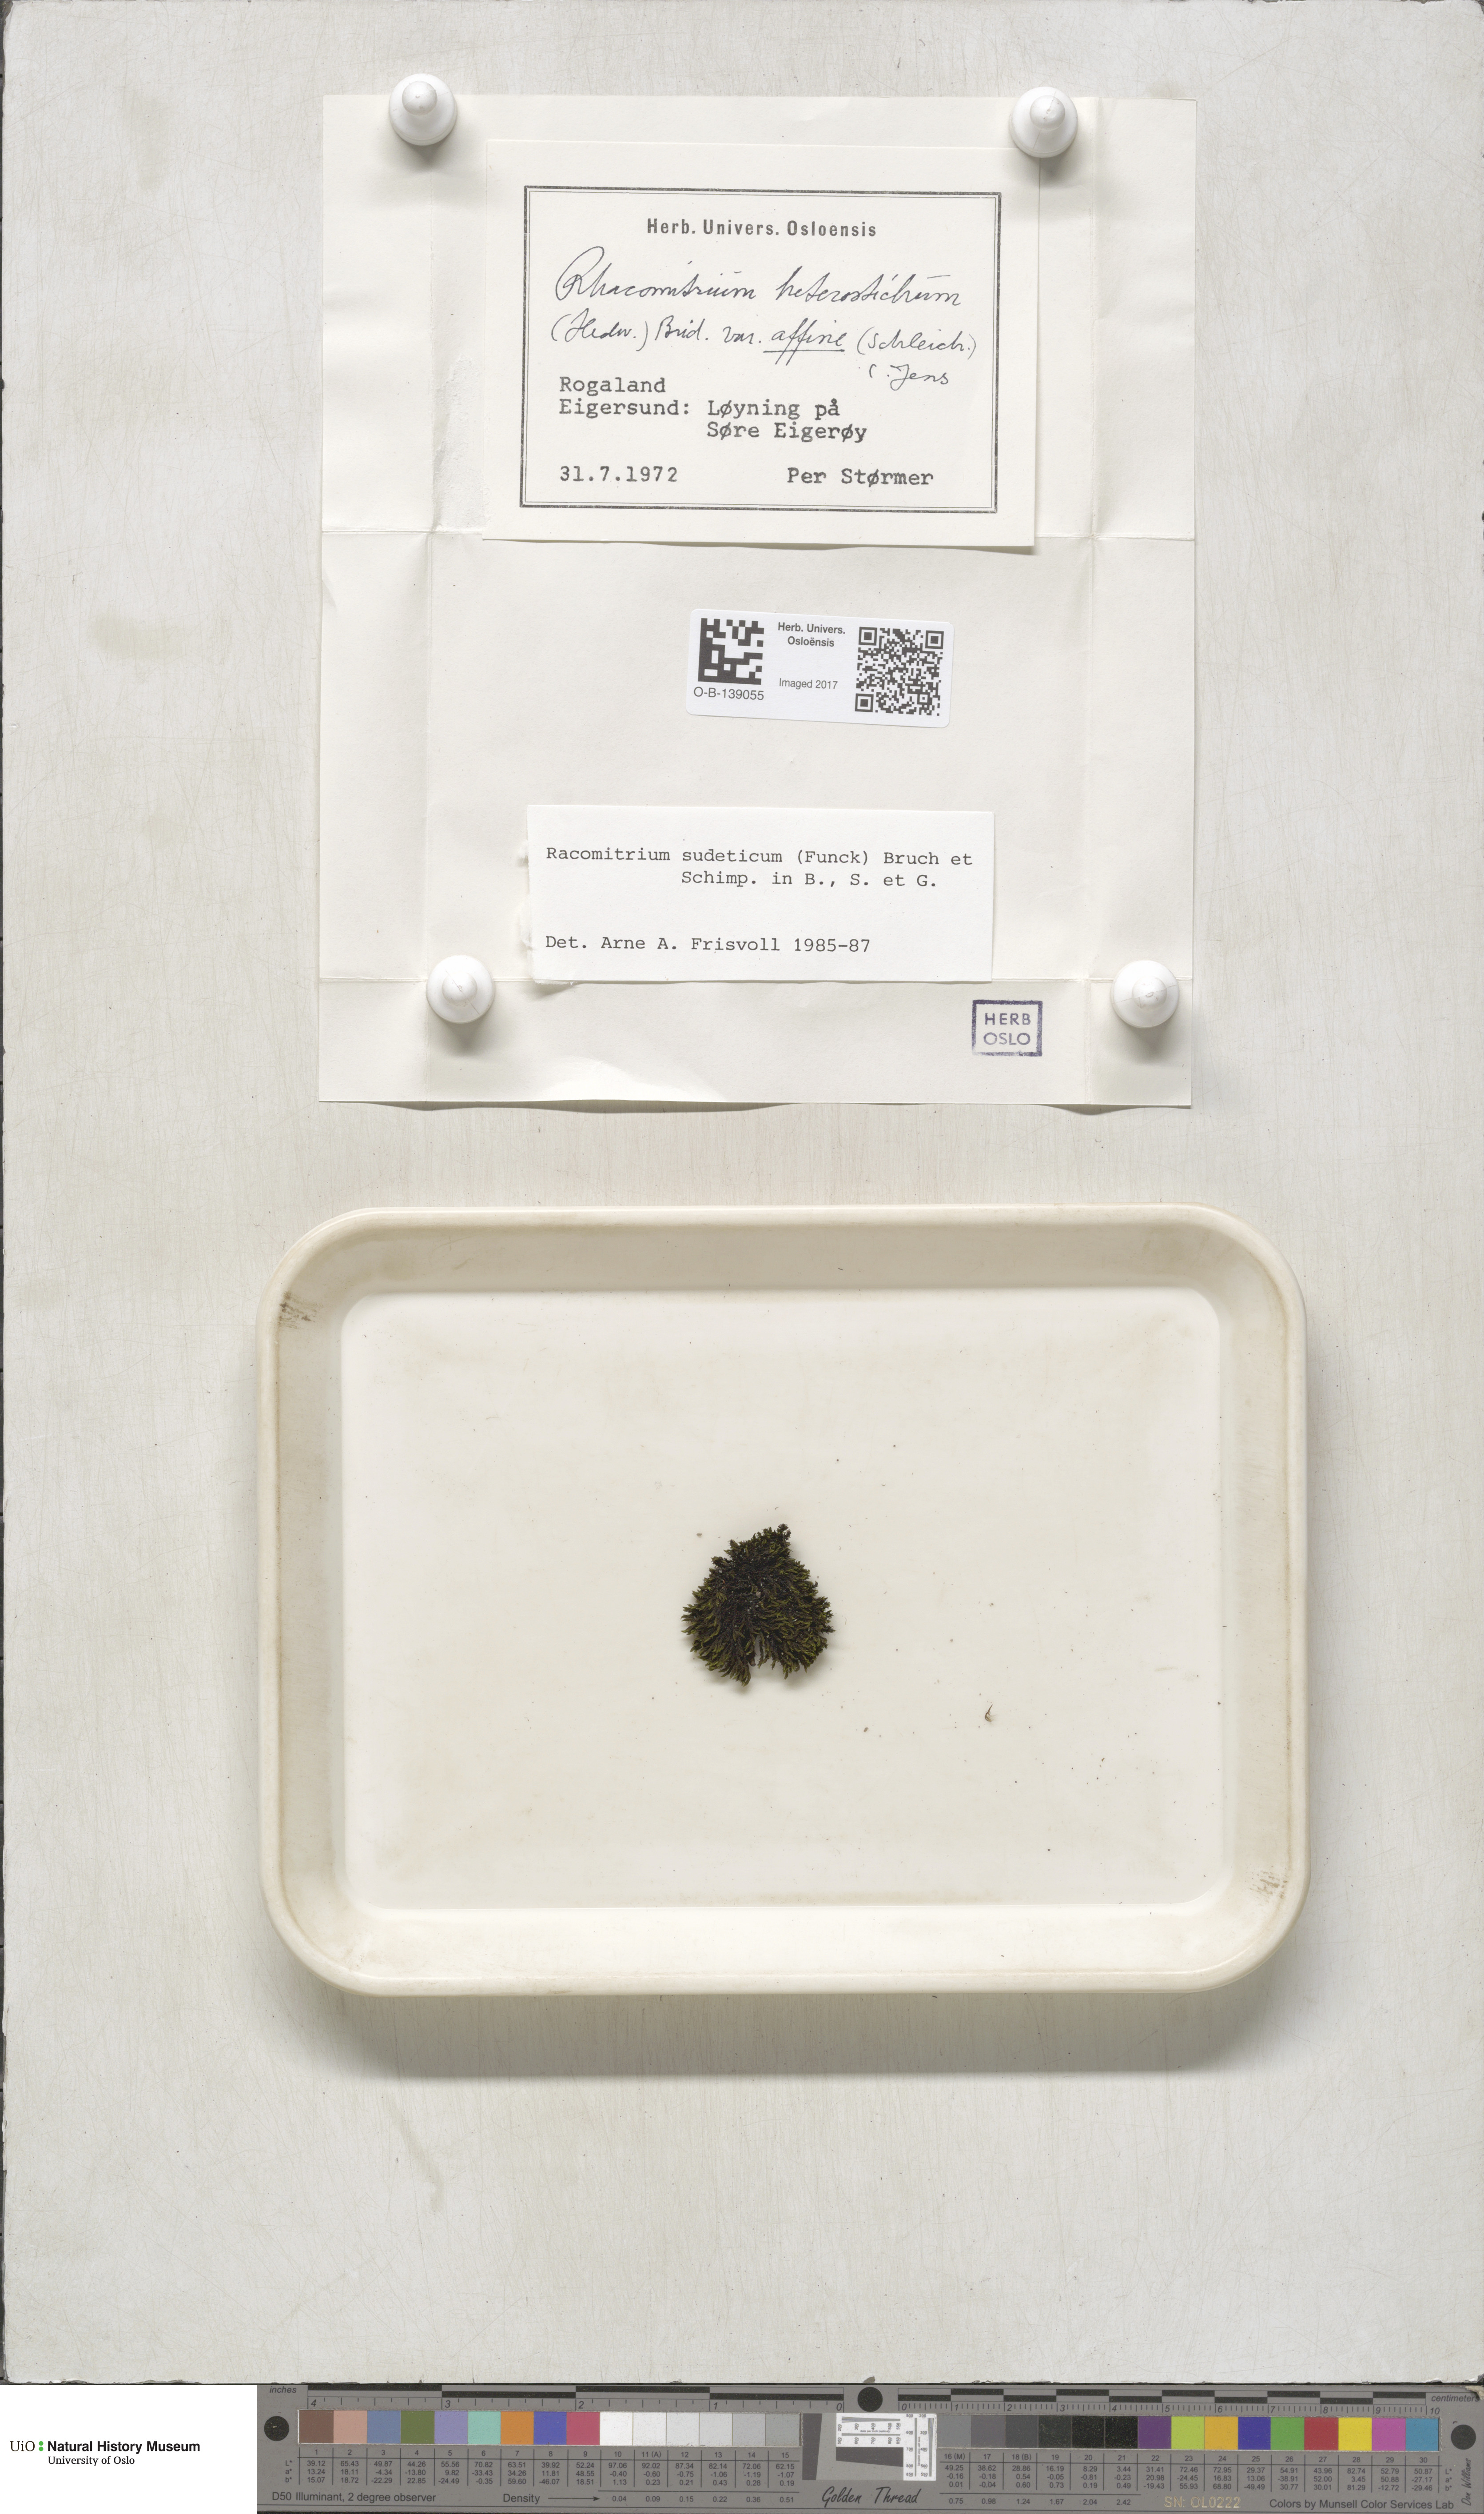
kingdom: Plantae
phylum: Bryophyta
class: Bryopsida
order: Grimmiales
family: Grimmiaceae
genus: Bucklandiella
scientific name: Bucklandiella sudetica
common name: Slender fringe-moss
